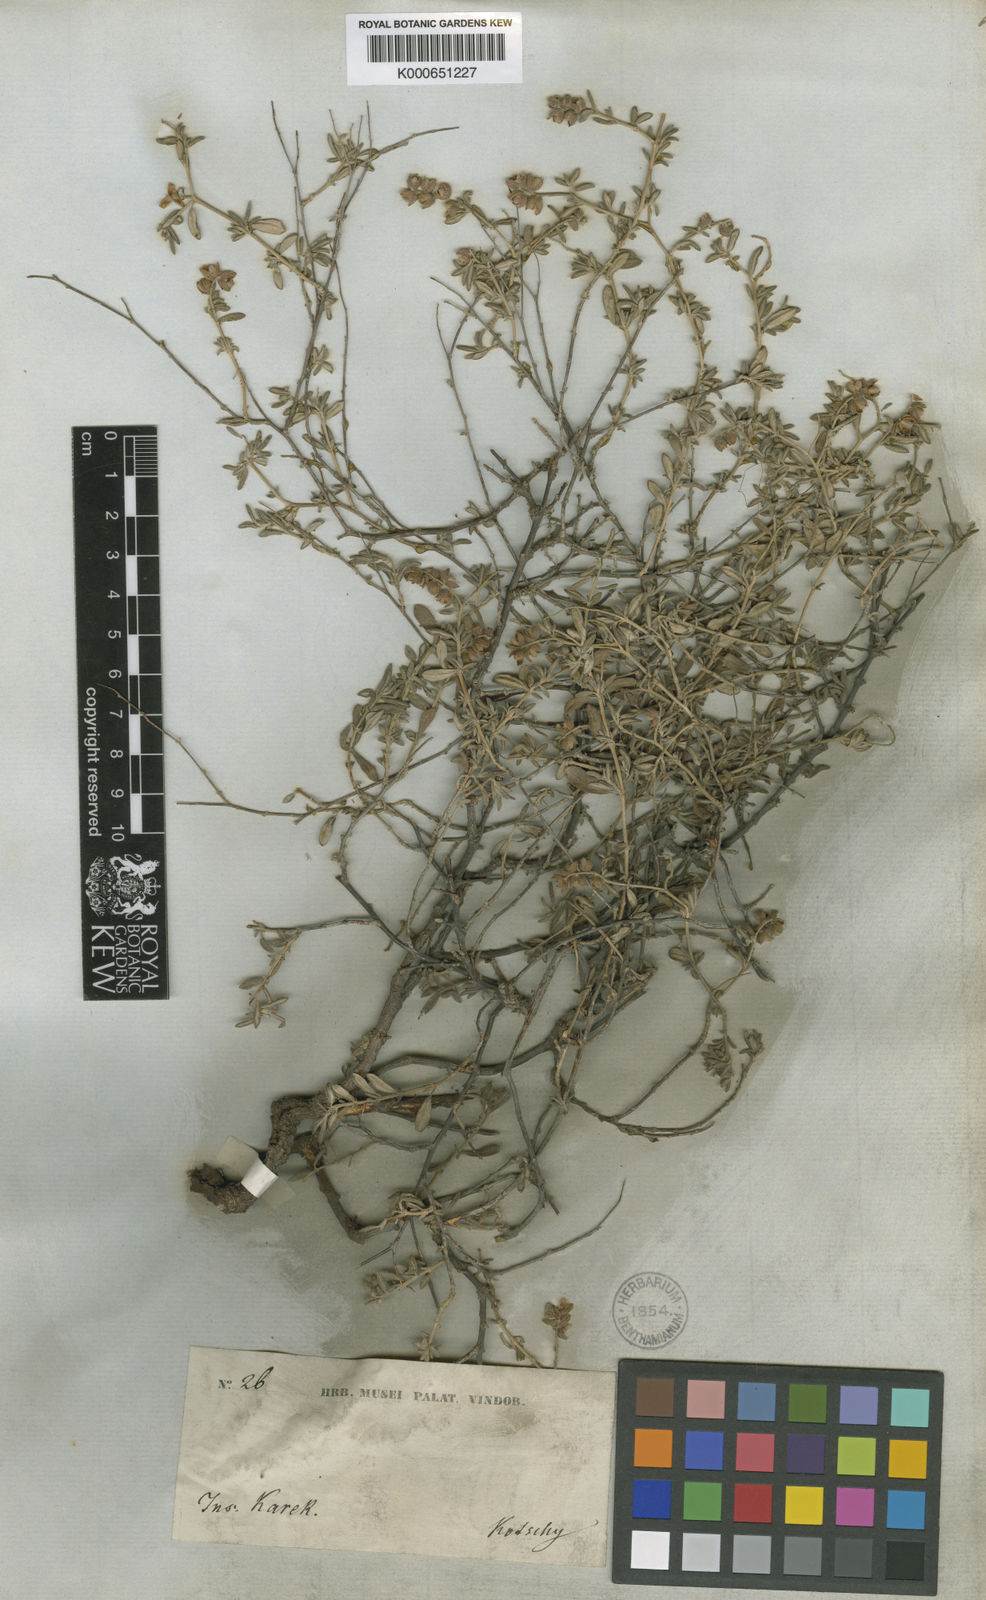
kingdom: Plantae
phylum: Tracheophyta
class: Magnoliopsida
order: Malvales
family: Cistaceae
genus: Helianthemum
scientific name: Helianthemum
